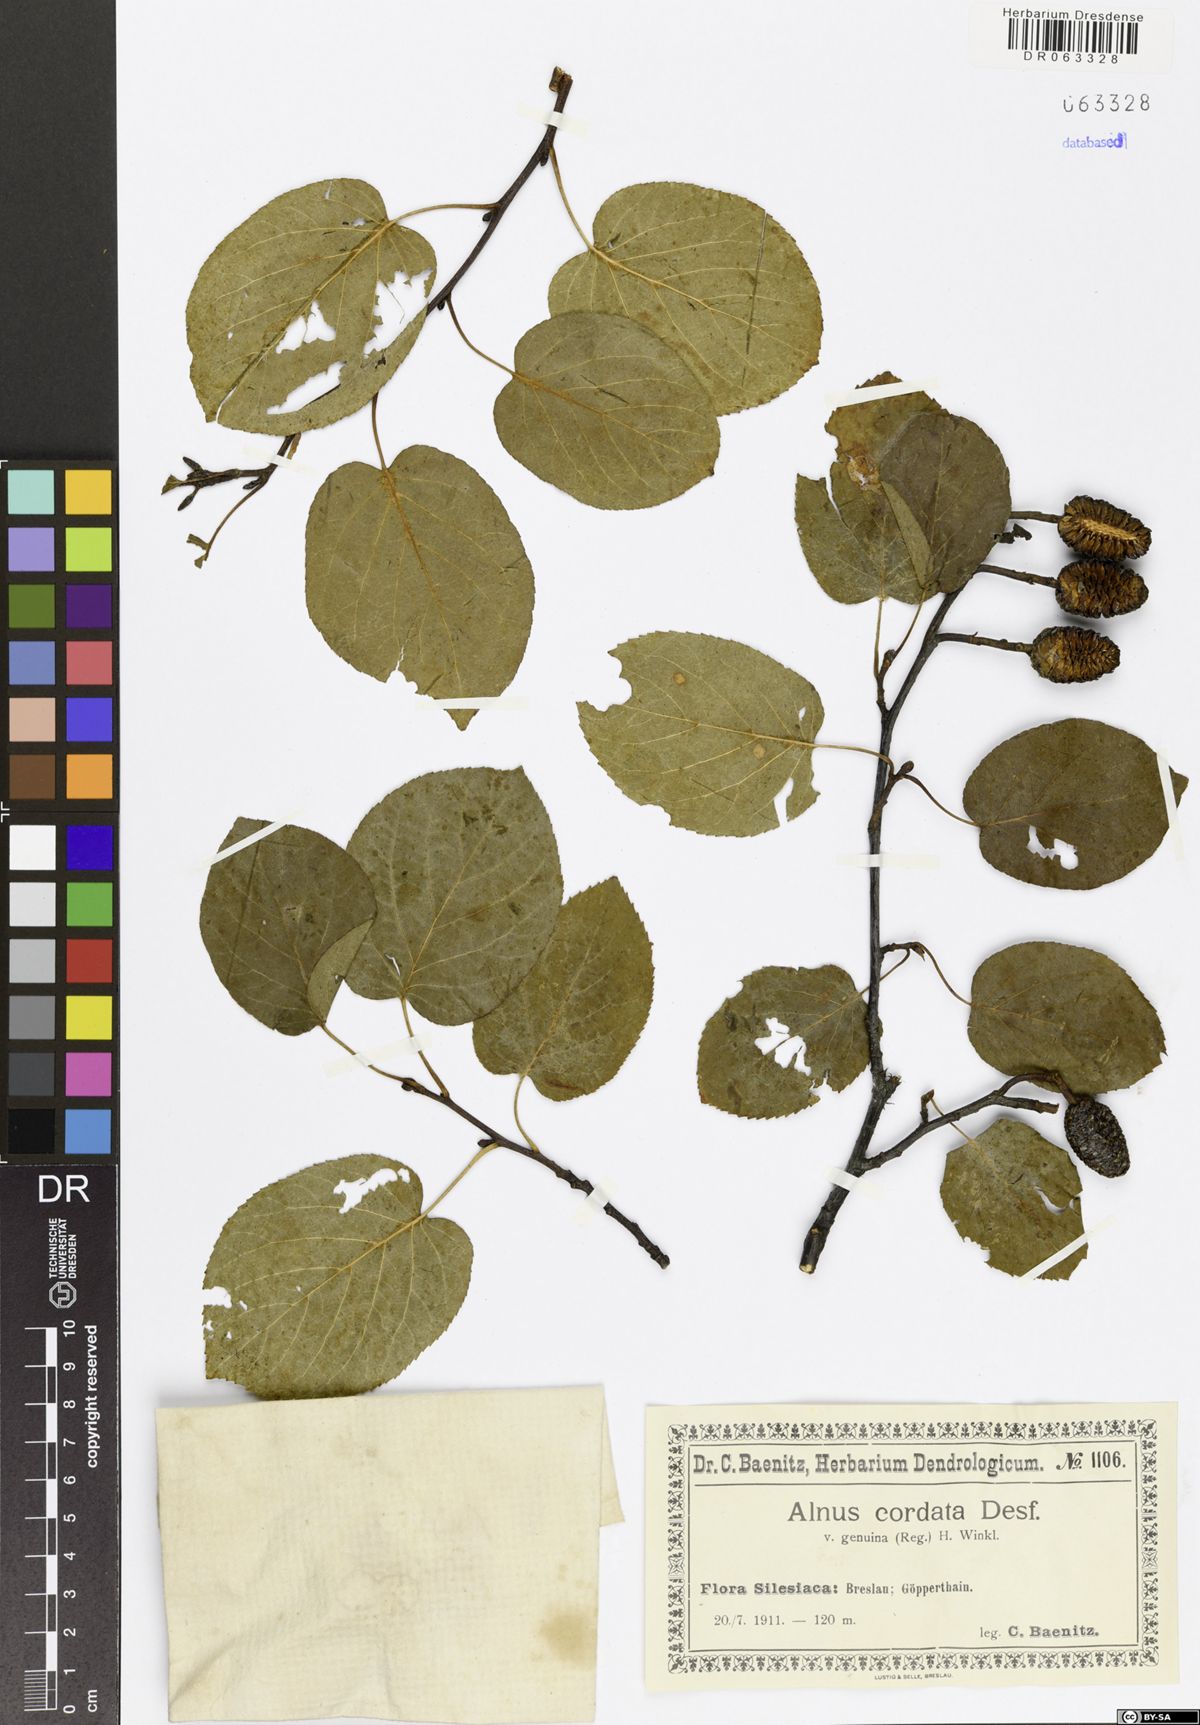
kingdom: Plantae
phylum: Tracheophyta
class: Magnoliopsida
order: Fagales
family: Betulaceae
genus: Alnus
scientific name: Alnus cordata
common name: Italian alder
